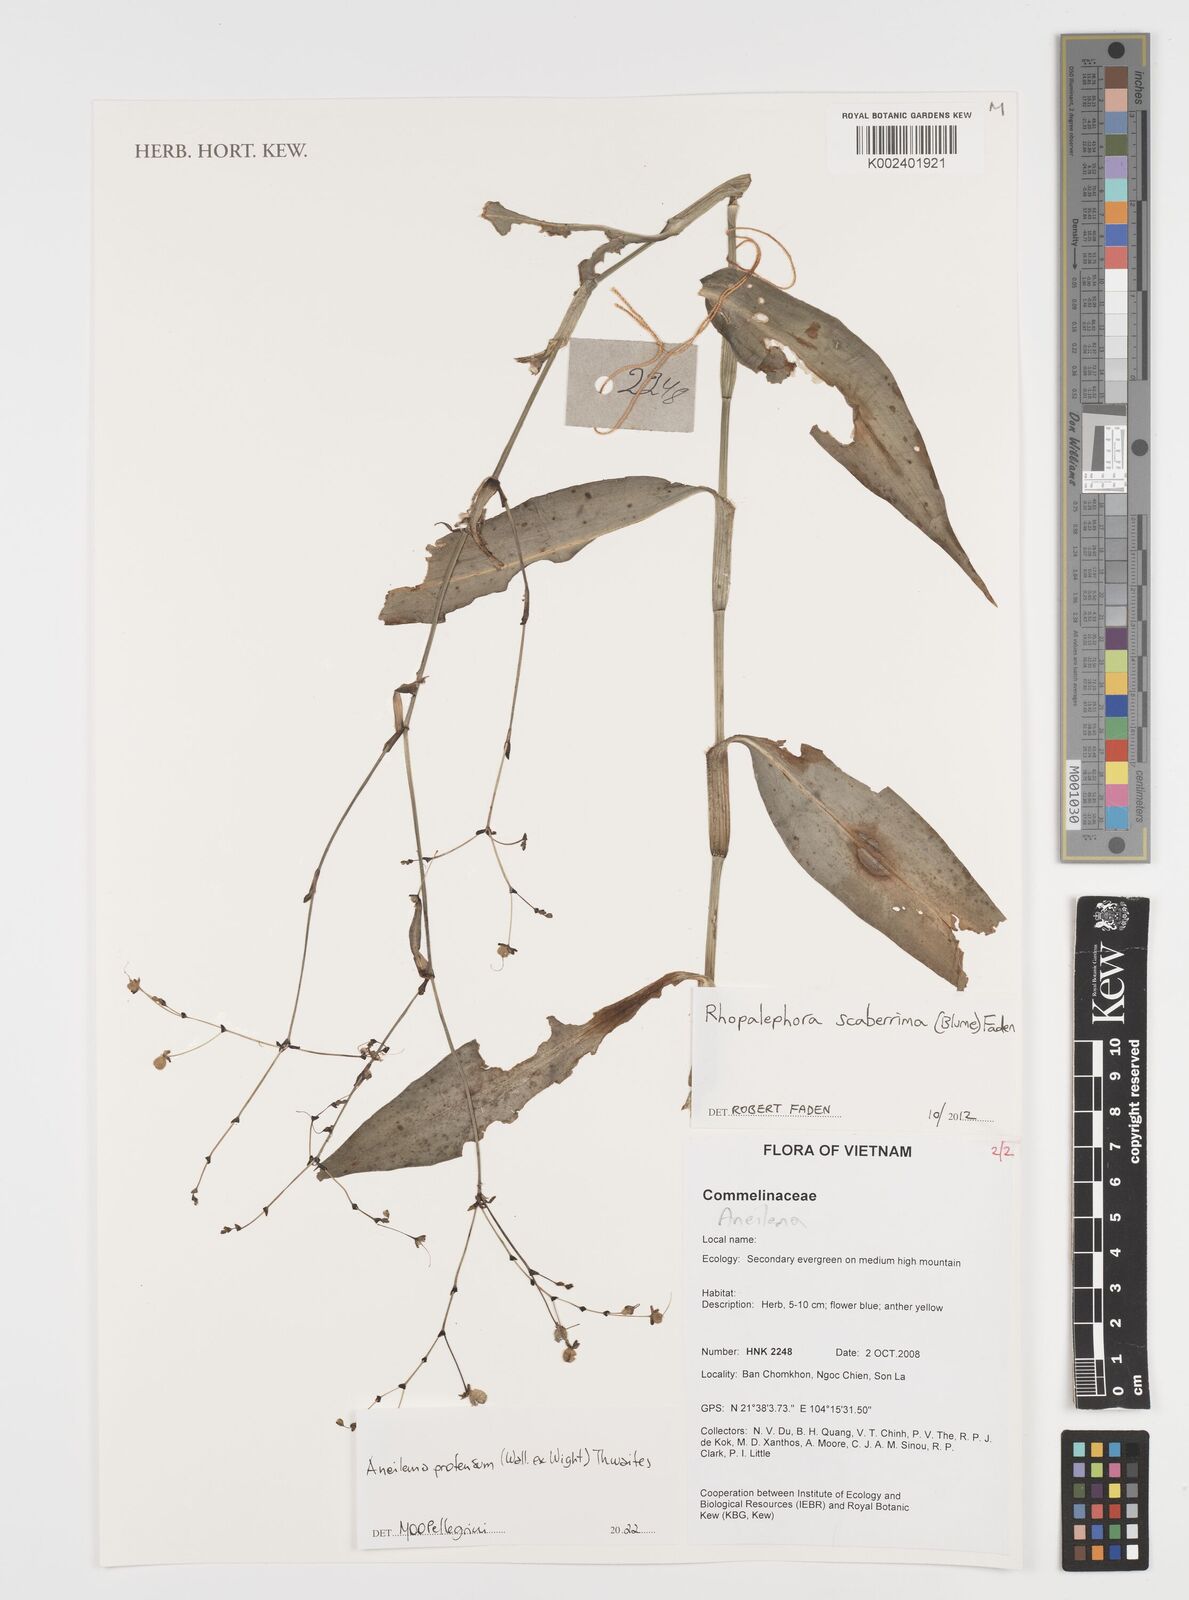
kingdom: Plantae
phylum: Tracheophyta
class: Liliopsida
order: Commelinales
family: Commelinaceae
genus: Rhopalephora
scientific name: Rhopalephora
